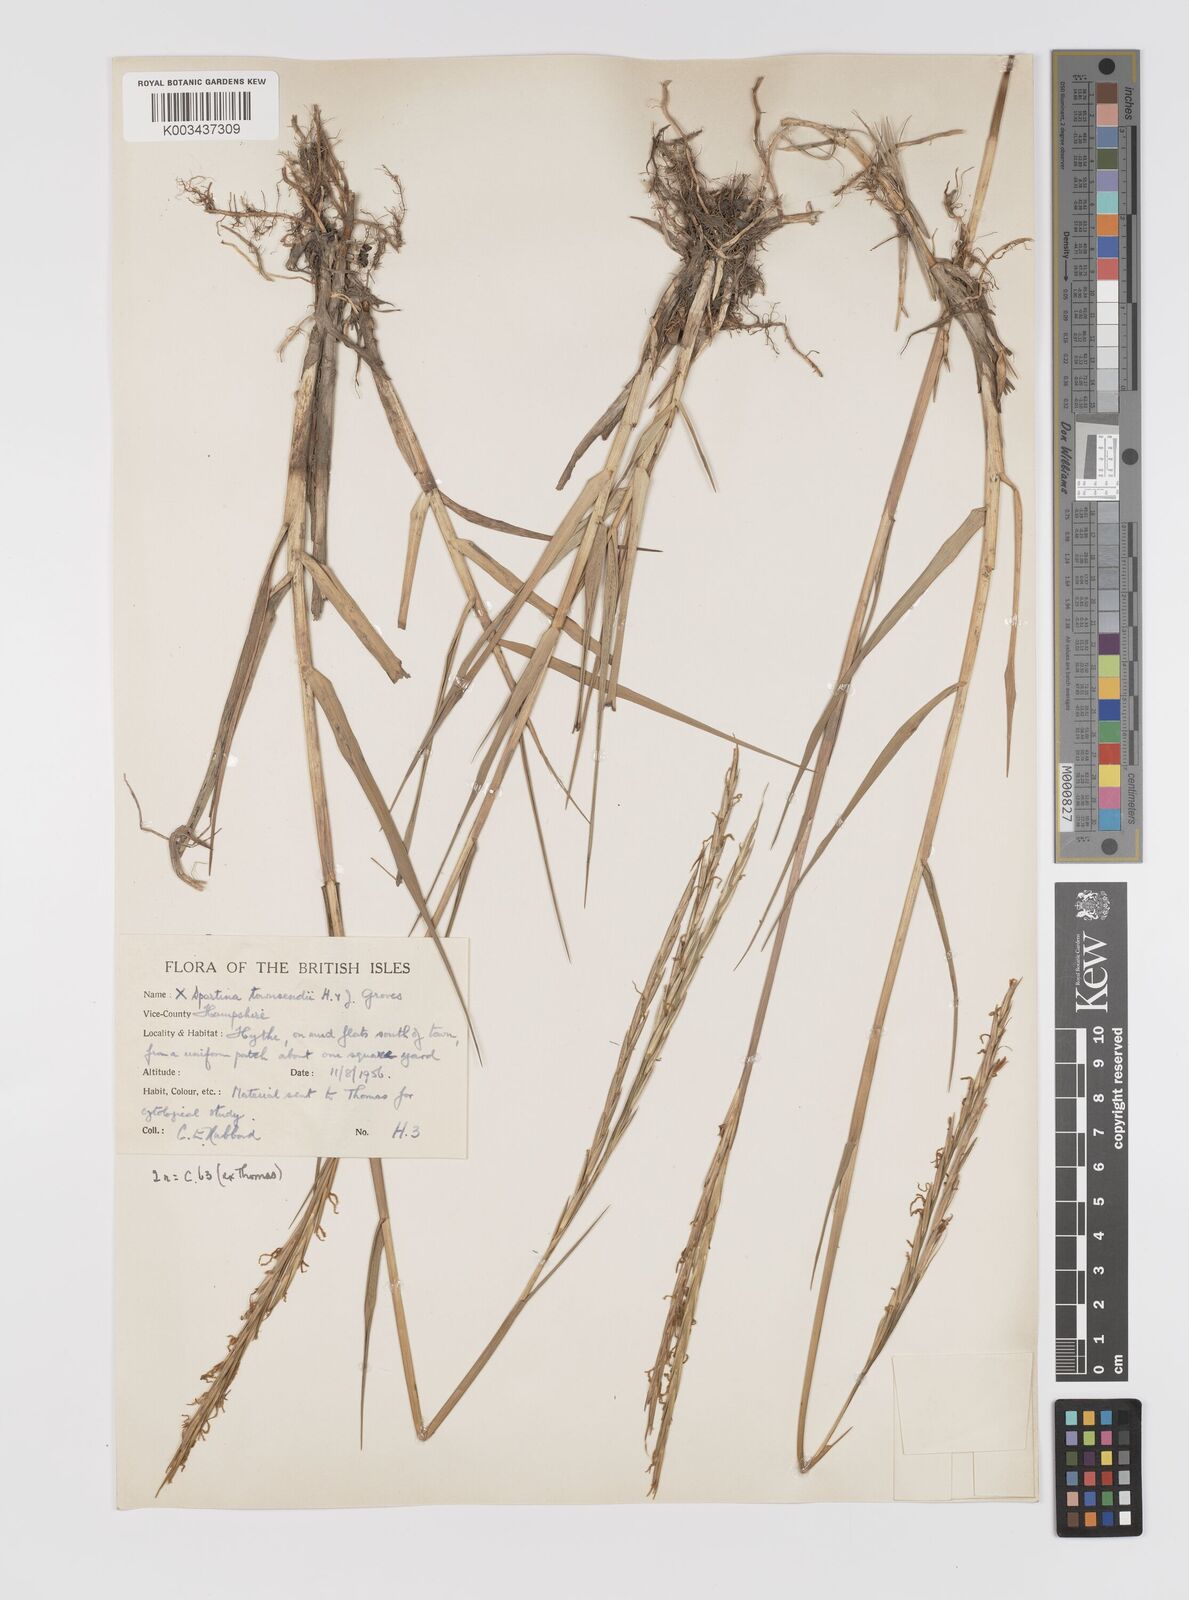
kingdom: Plantae
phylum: Tracheophyta
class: Liliopsida
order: Poales
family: Poaceae
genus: Sporobolus
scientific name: Sporobolus townsendii
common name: Townsend's cordgrass
